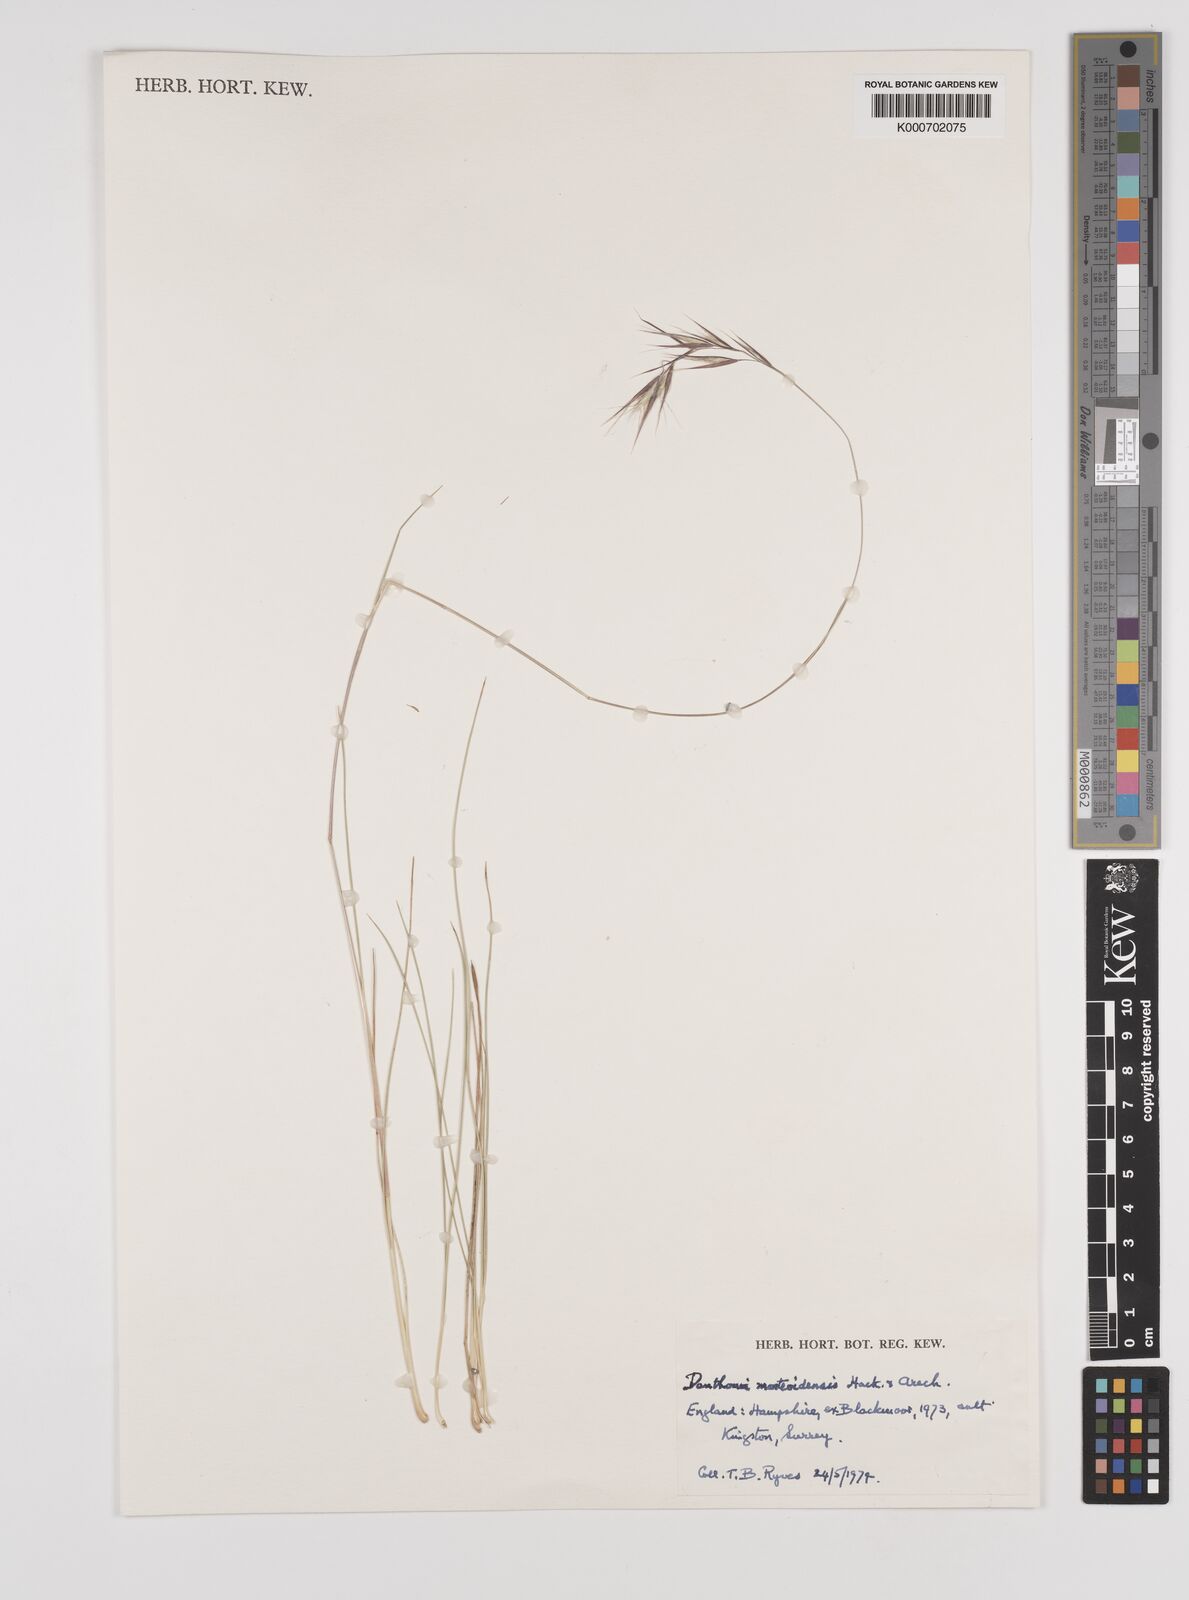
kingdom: Plantae
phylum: Tracheophyta
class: Liliopsida
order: Poales
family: Poaceae
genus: Danthonia
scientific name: Danthonia montevidensis
